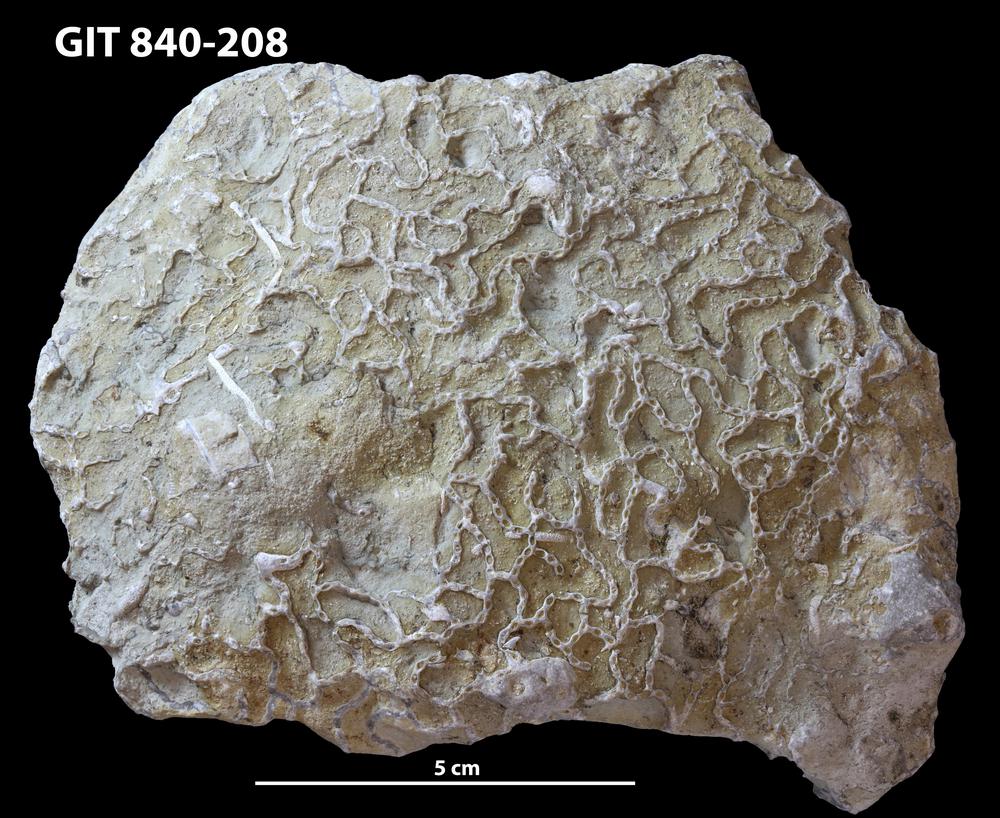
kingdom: Animalia
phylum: Cnidaria
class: Anthozoa
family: Cateniporidae
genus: Catenipora
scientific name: Catenipora
